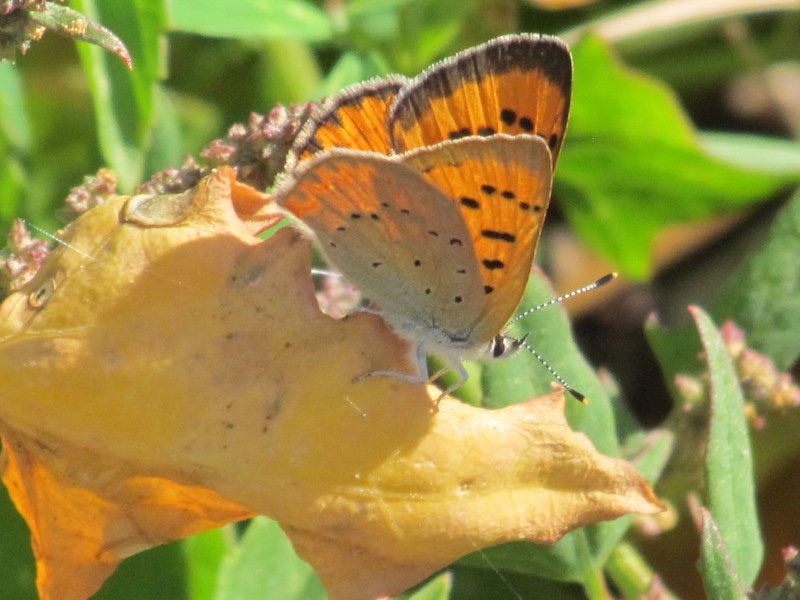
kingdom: Animalia
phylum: Arthropoda
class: Insecta
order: Lepidoptera
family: Sesiidae
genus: Sesia
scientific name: Sesia Lycaena helloides
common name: Purplish Copper
